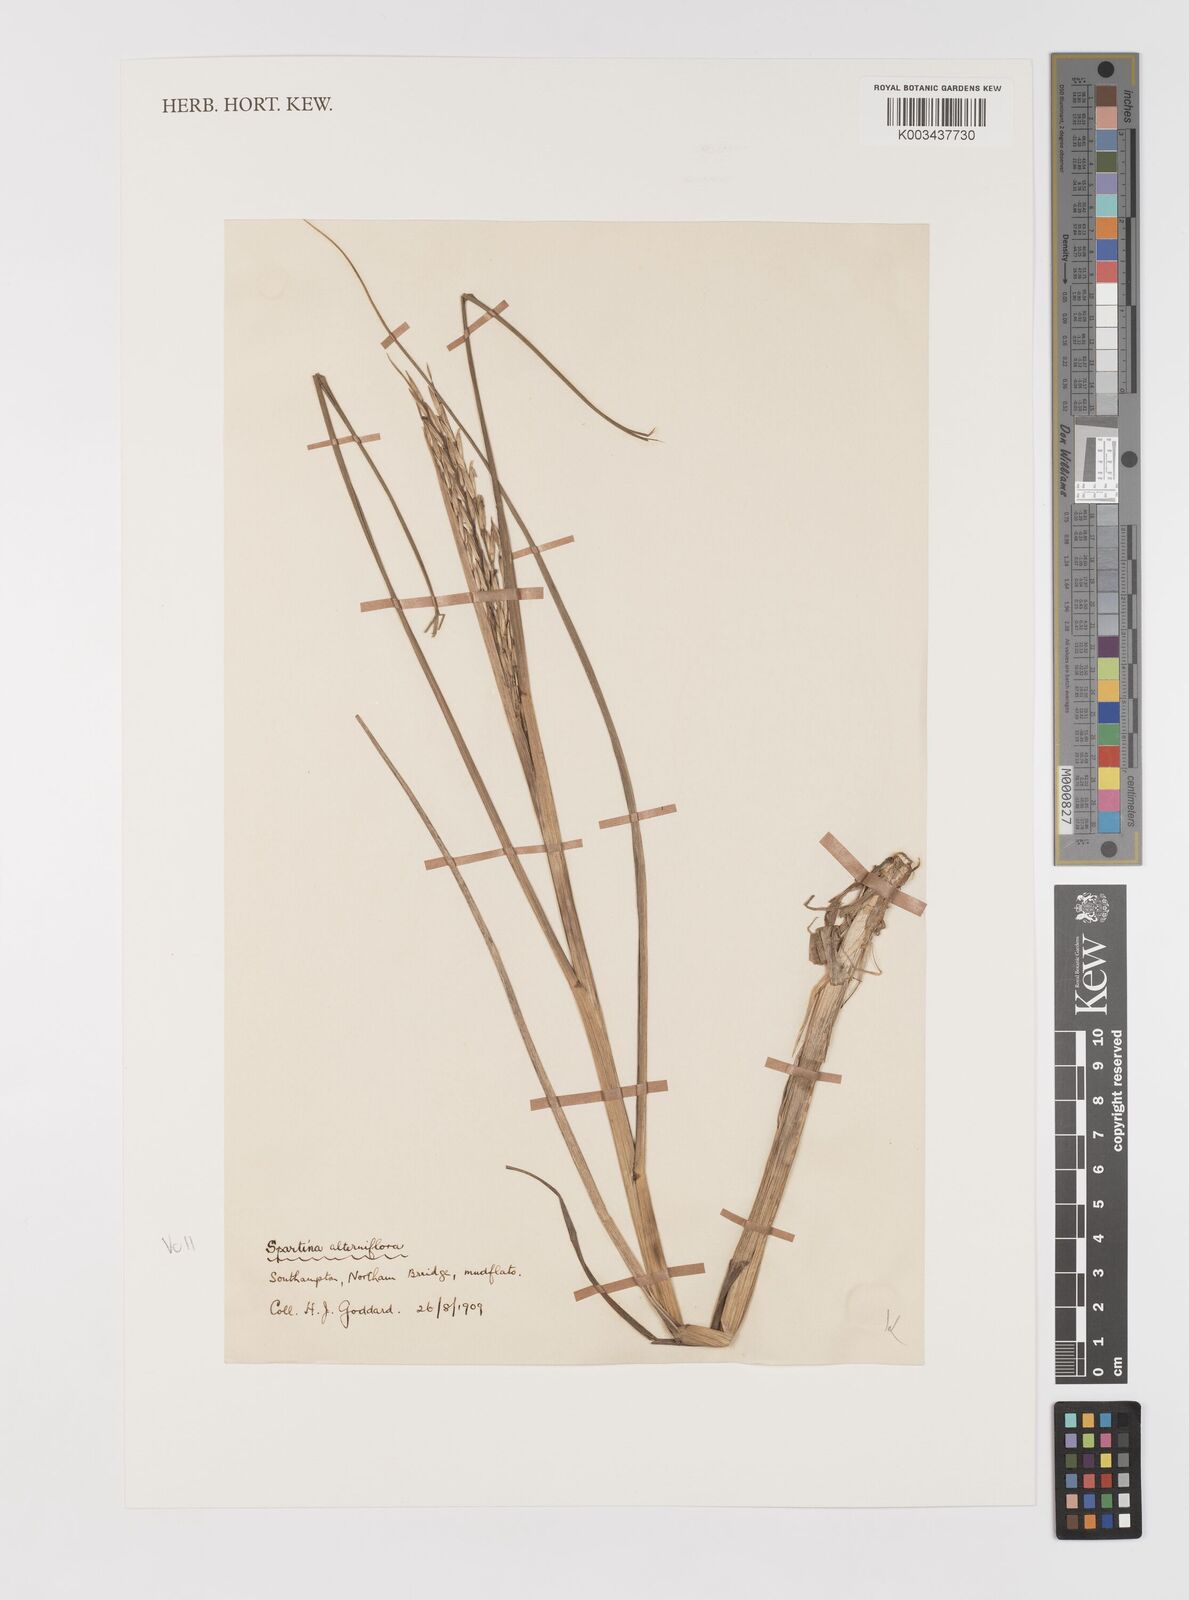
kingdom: Plantae
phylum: Tracheophyta
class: Liliopsida
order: Poales
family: Poaceae
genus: Sporobolus
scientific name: Sporobolus alterniflorus
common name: Atlantic cordgrass
